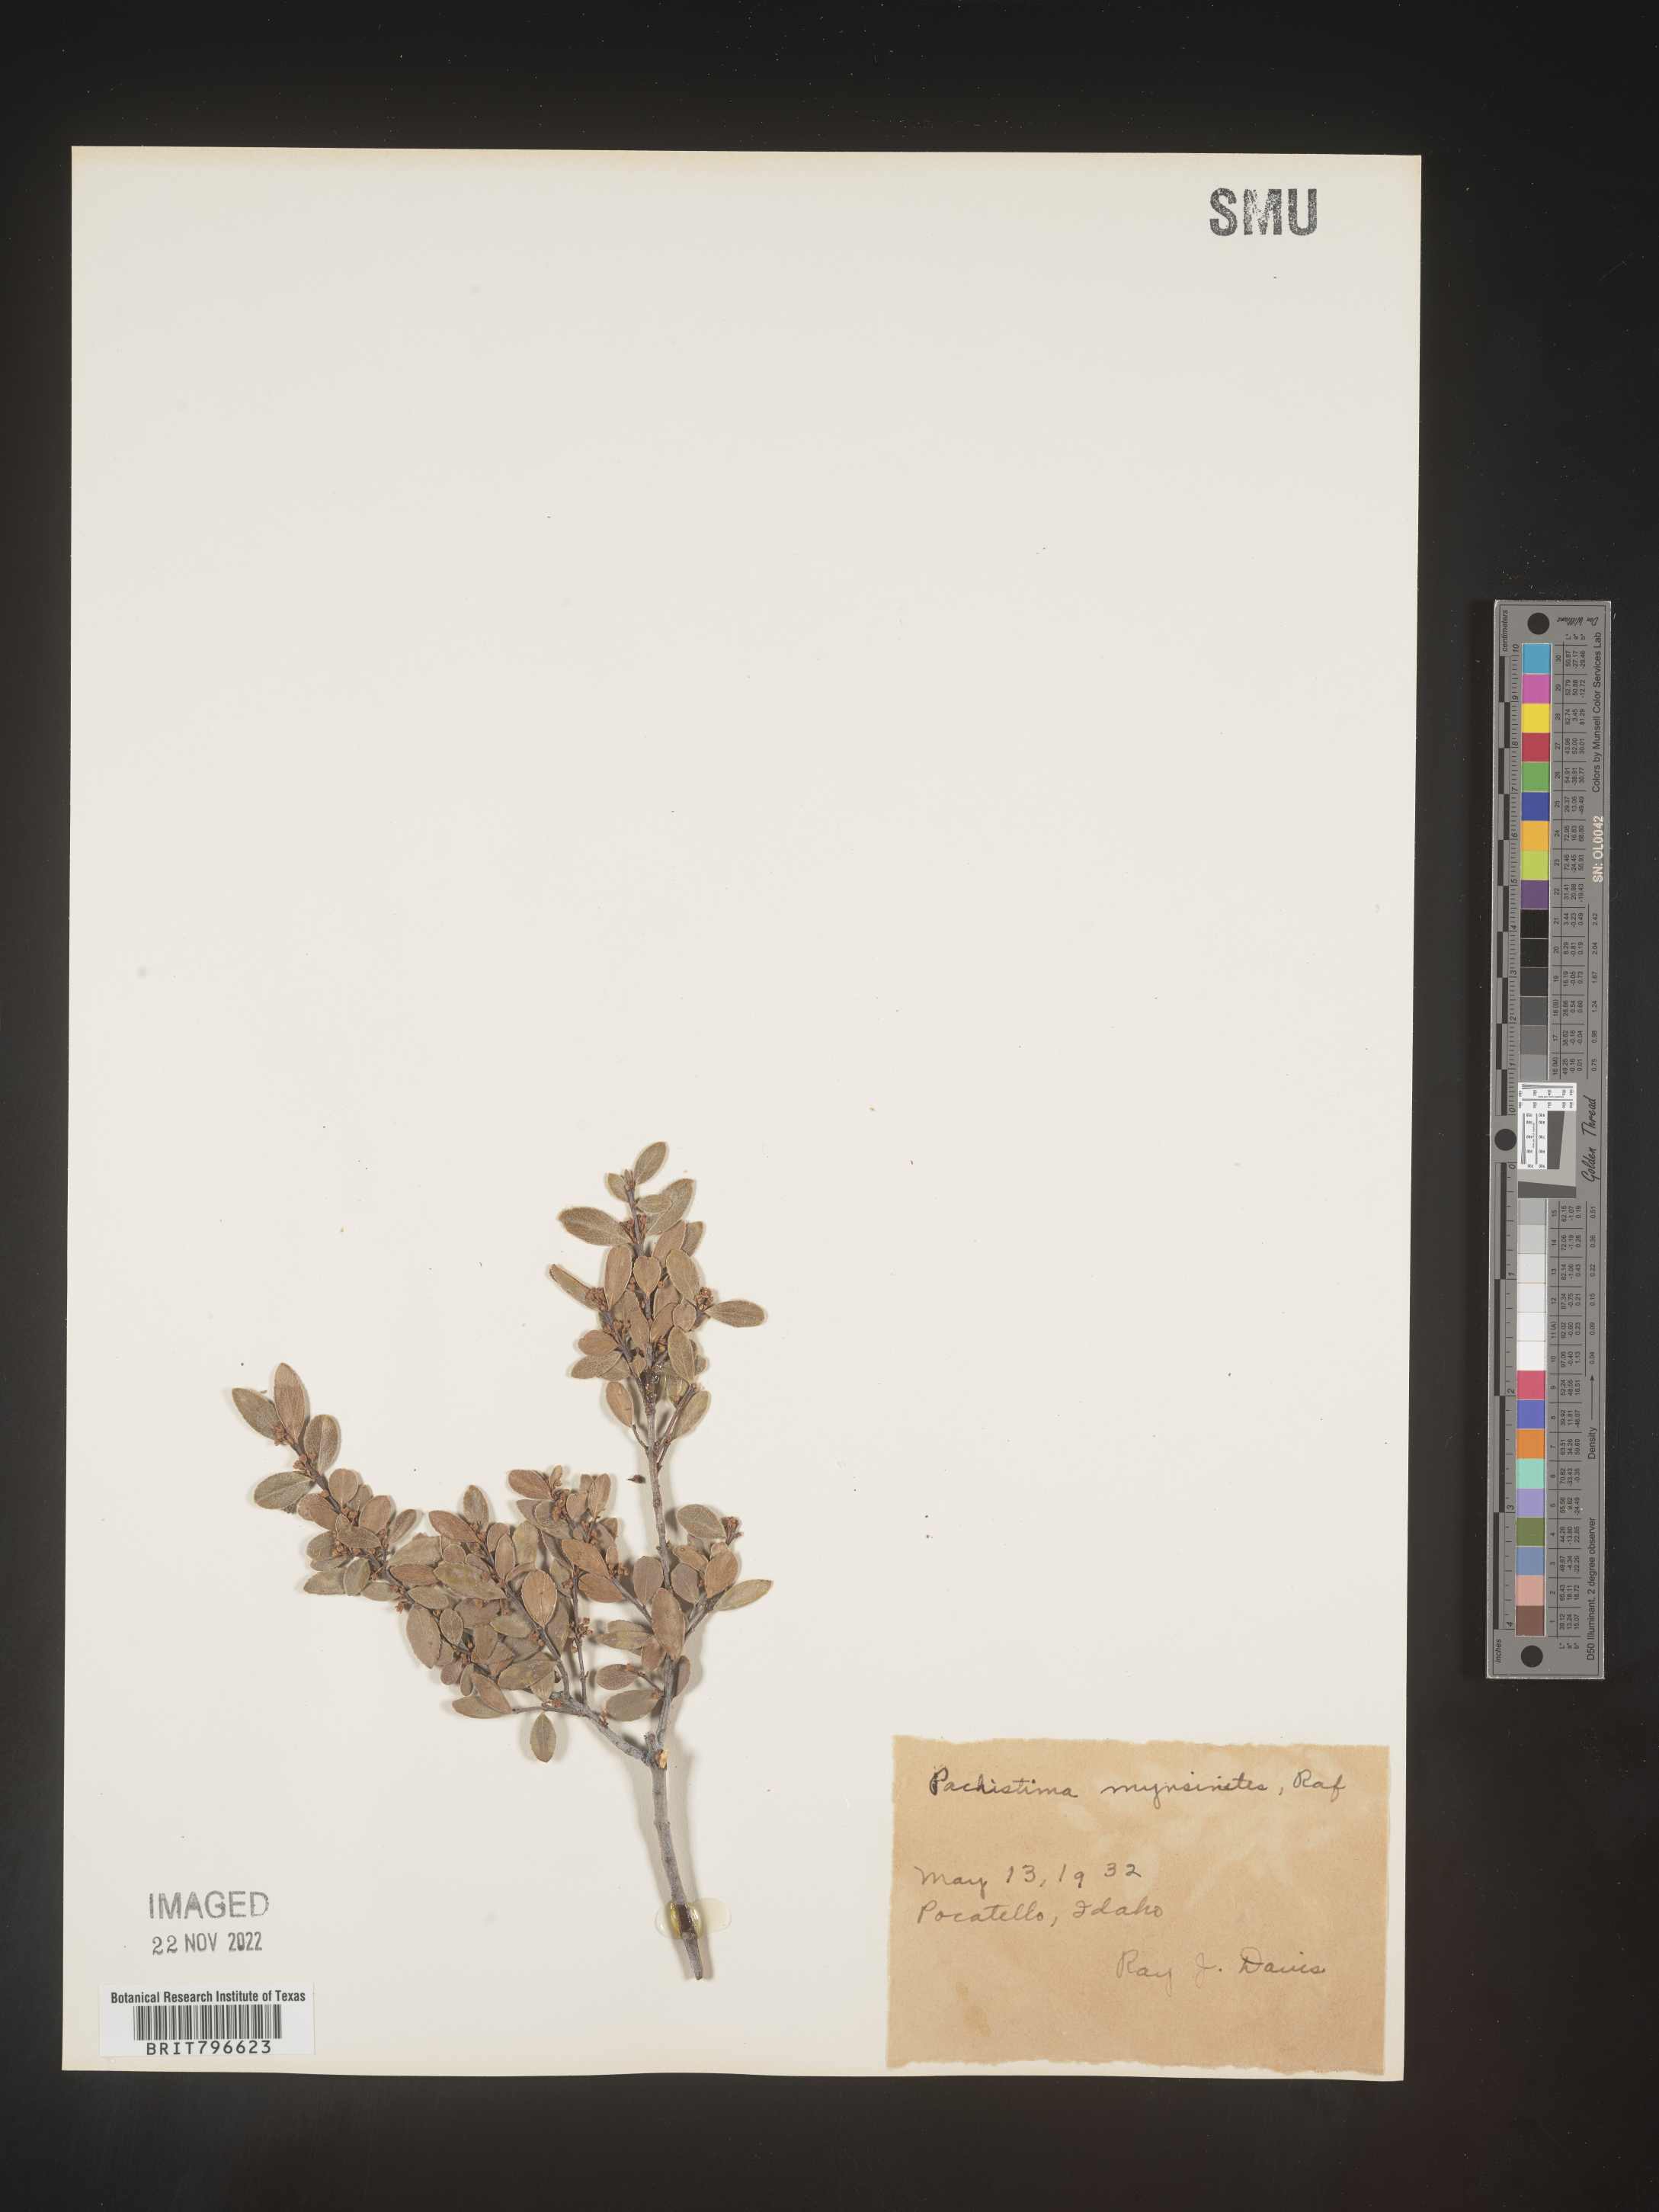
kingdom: Plantae
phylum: Tracheophyta
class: Magnoliopsida
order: Celastrales
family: Celastraceae
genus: Paxistima
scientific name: Paxistima myrsinites
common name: Mountain-lover
